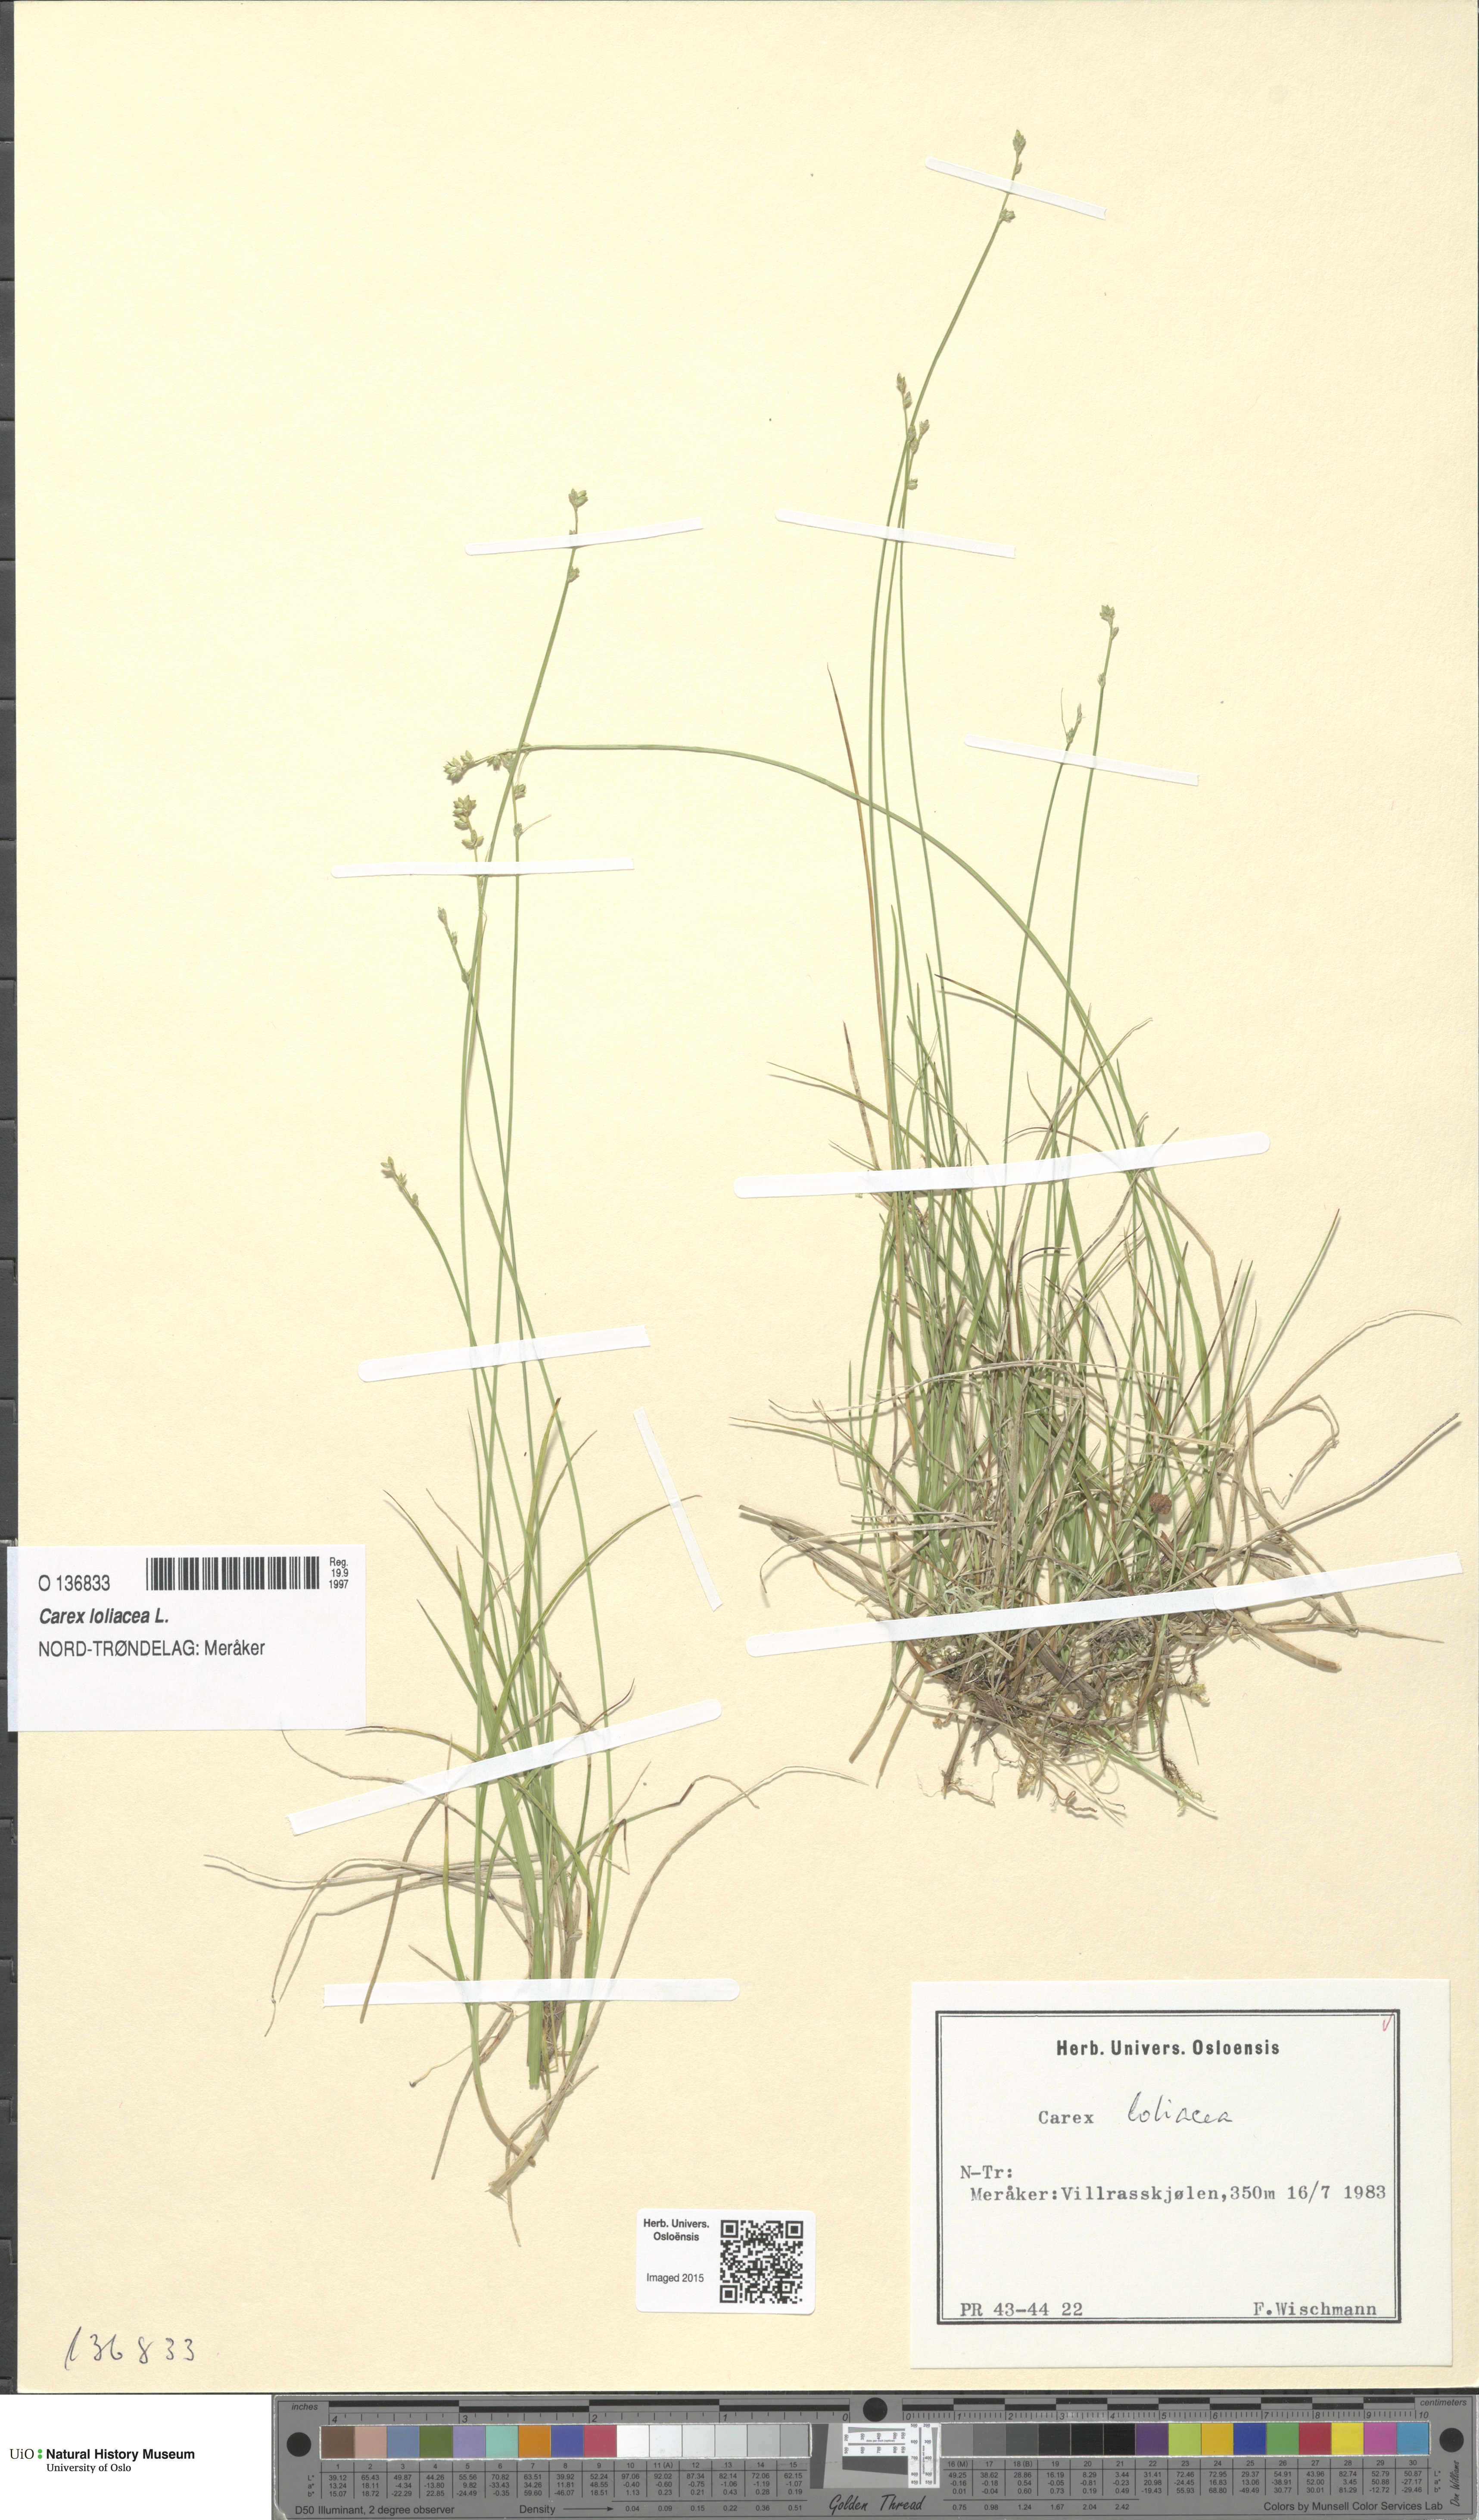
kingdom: Plantae
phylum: Tracheophyta
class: Liliopsida
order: Poales
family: Cyperaceae
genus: Carex
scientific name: Carex loliacea
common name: Ryegrass sedge
